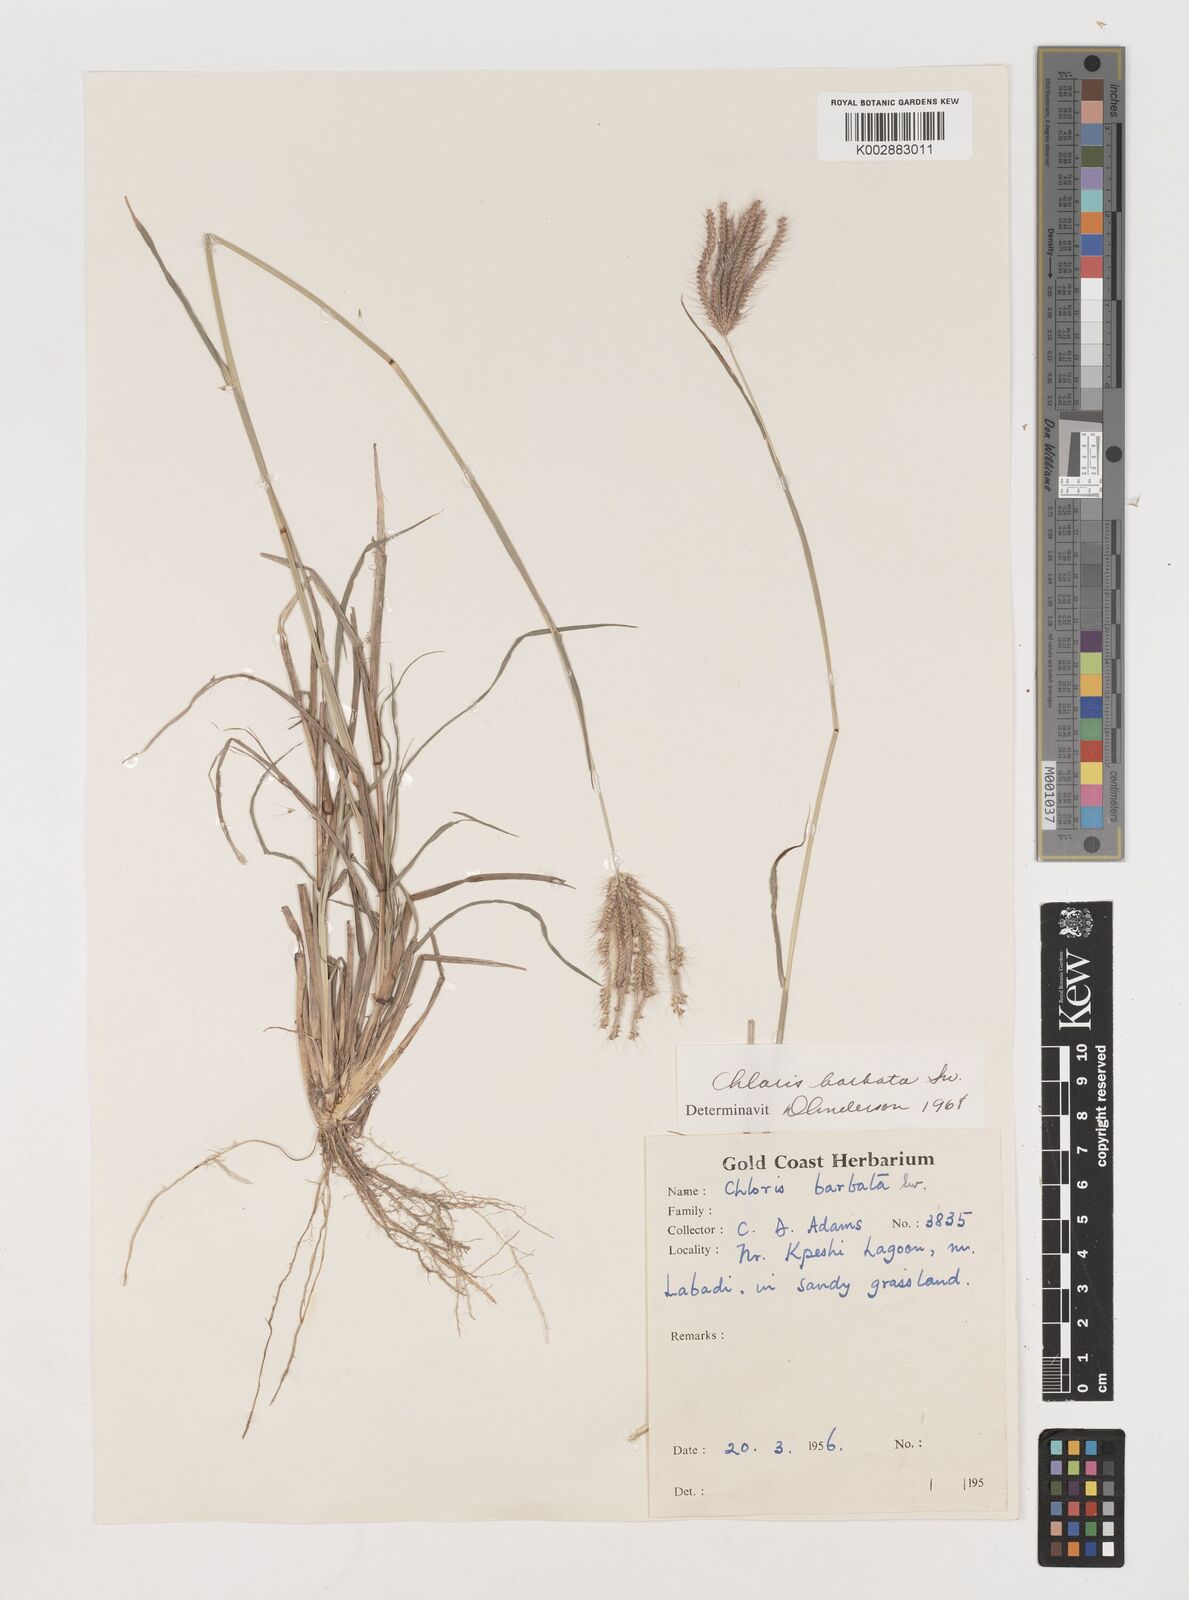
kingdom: Plantae
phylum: Tracheophyta
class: Liliopsida
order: Poales
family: Poaceae
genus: Chloris
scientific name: Chloris barbata
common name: Swollen fingergrass
